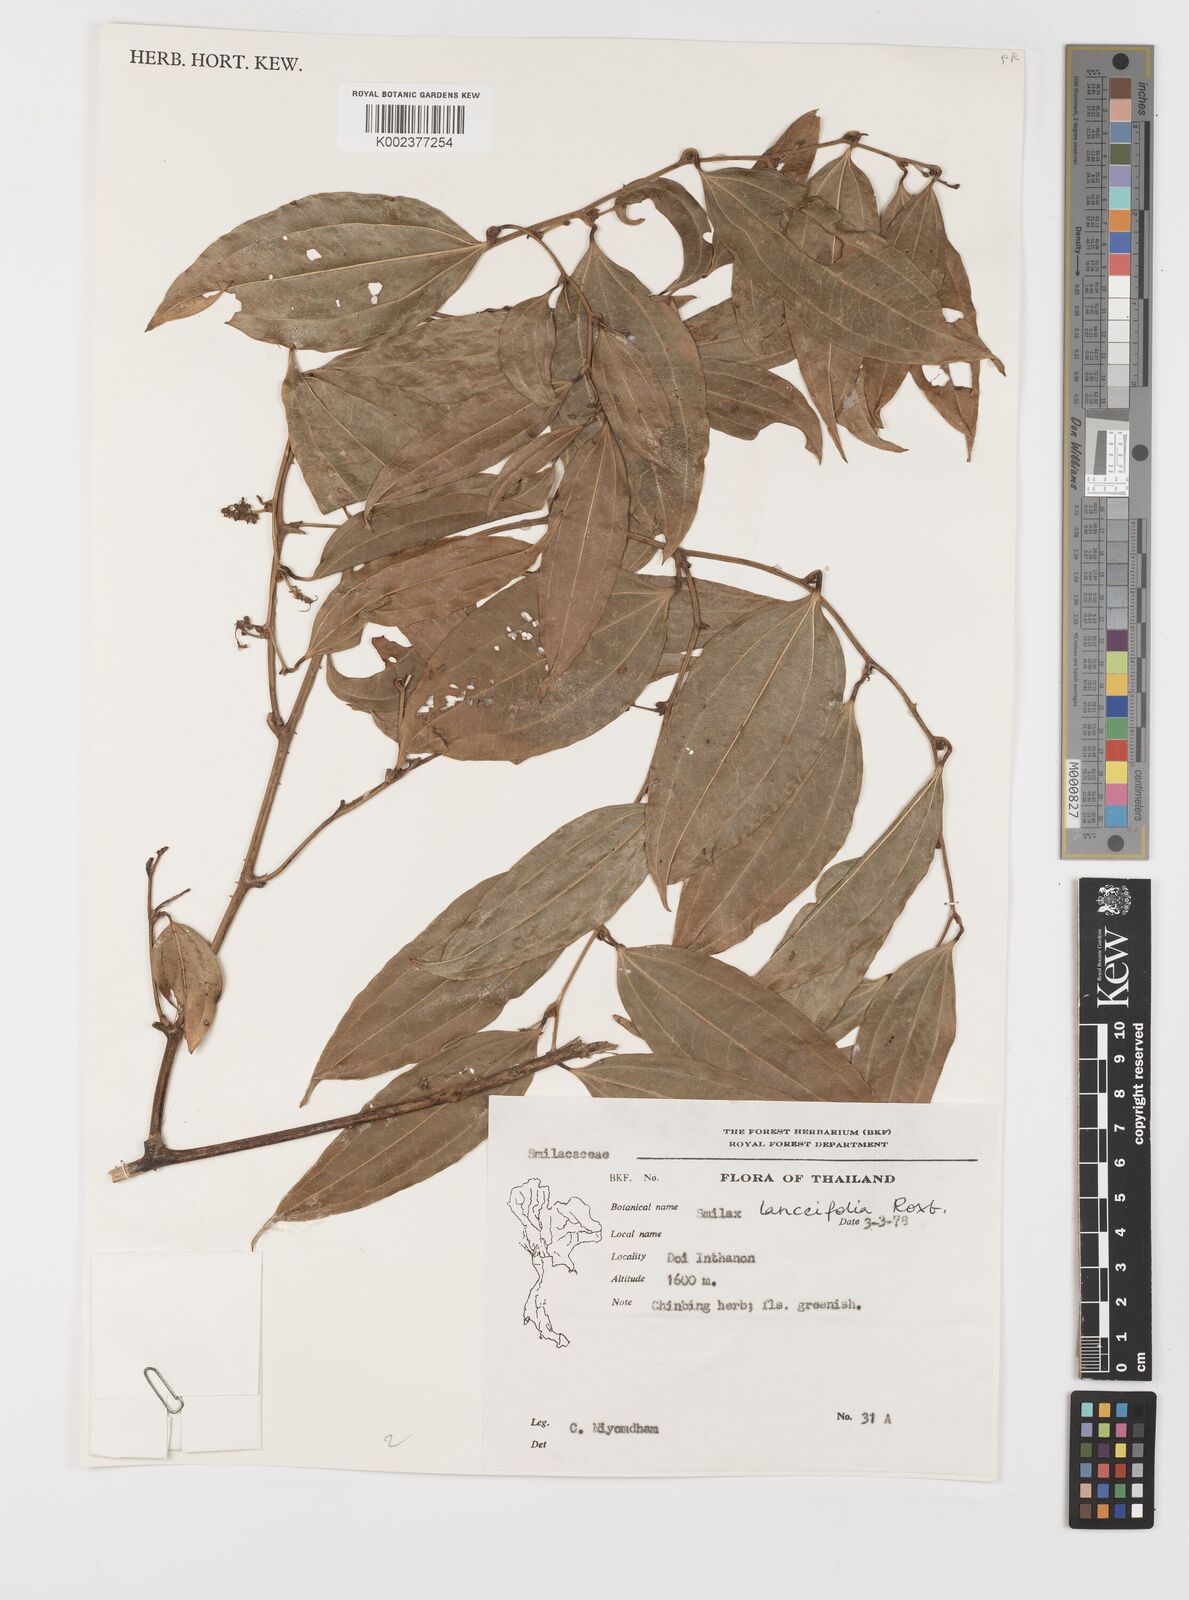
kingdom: Plantae
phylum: Tracheophyta
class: Liliopsida
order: Liliales
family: Smilacaceae
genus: Smilax
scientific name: Smilax lanceifolia
